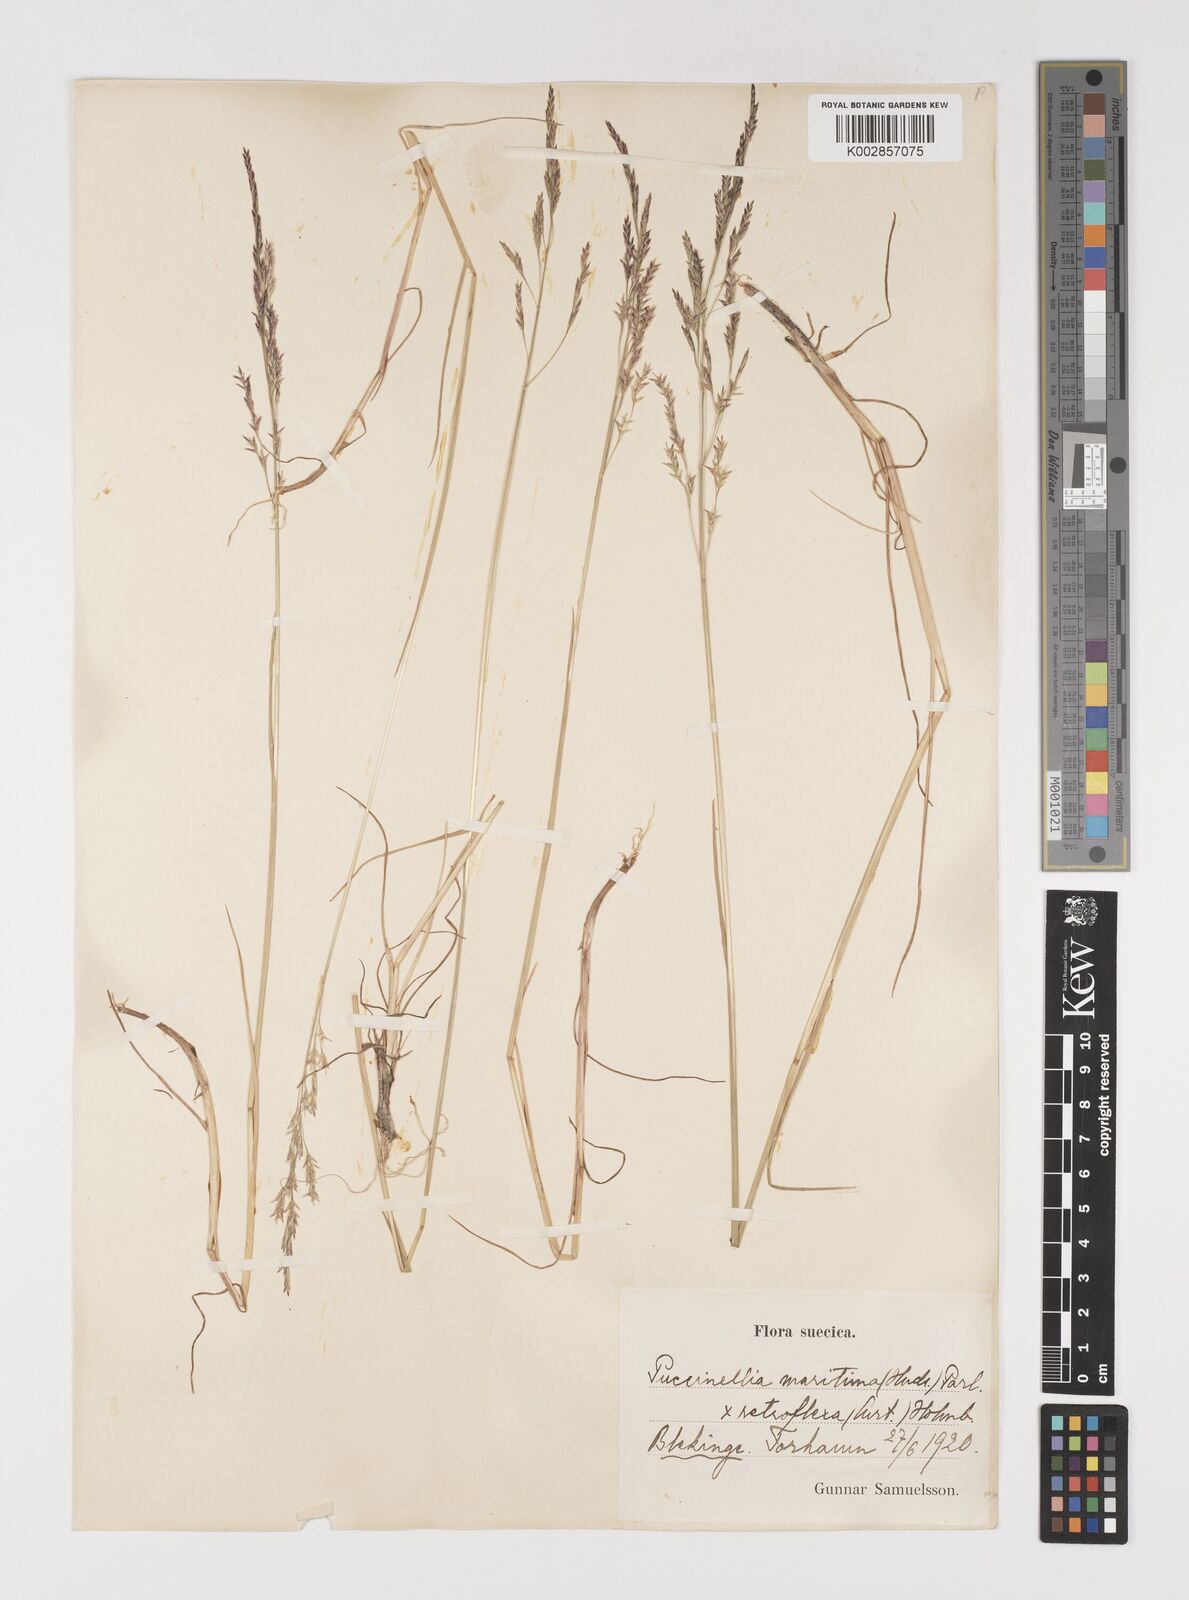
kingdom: Plantae
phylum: Tracheophyta
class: Liliopsida
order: Poales
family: Poaceae
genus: Puccinellia
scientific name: Puccinellia maritima
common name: Common saltmarsh grass
